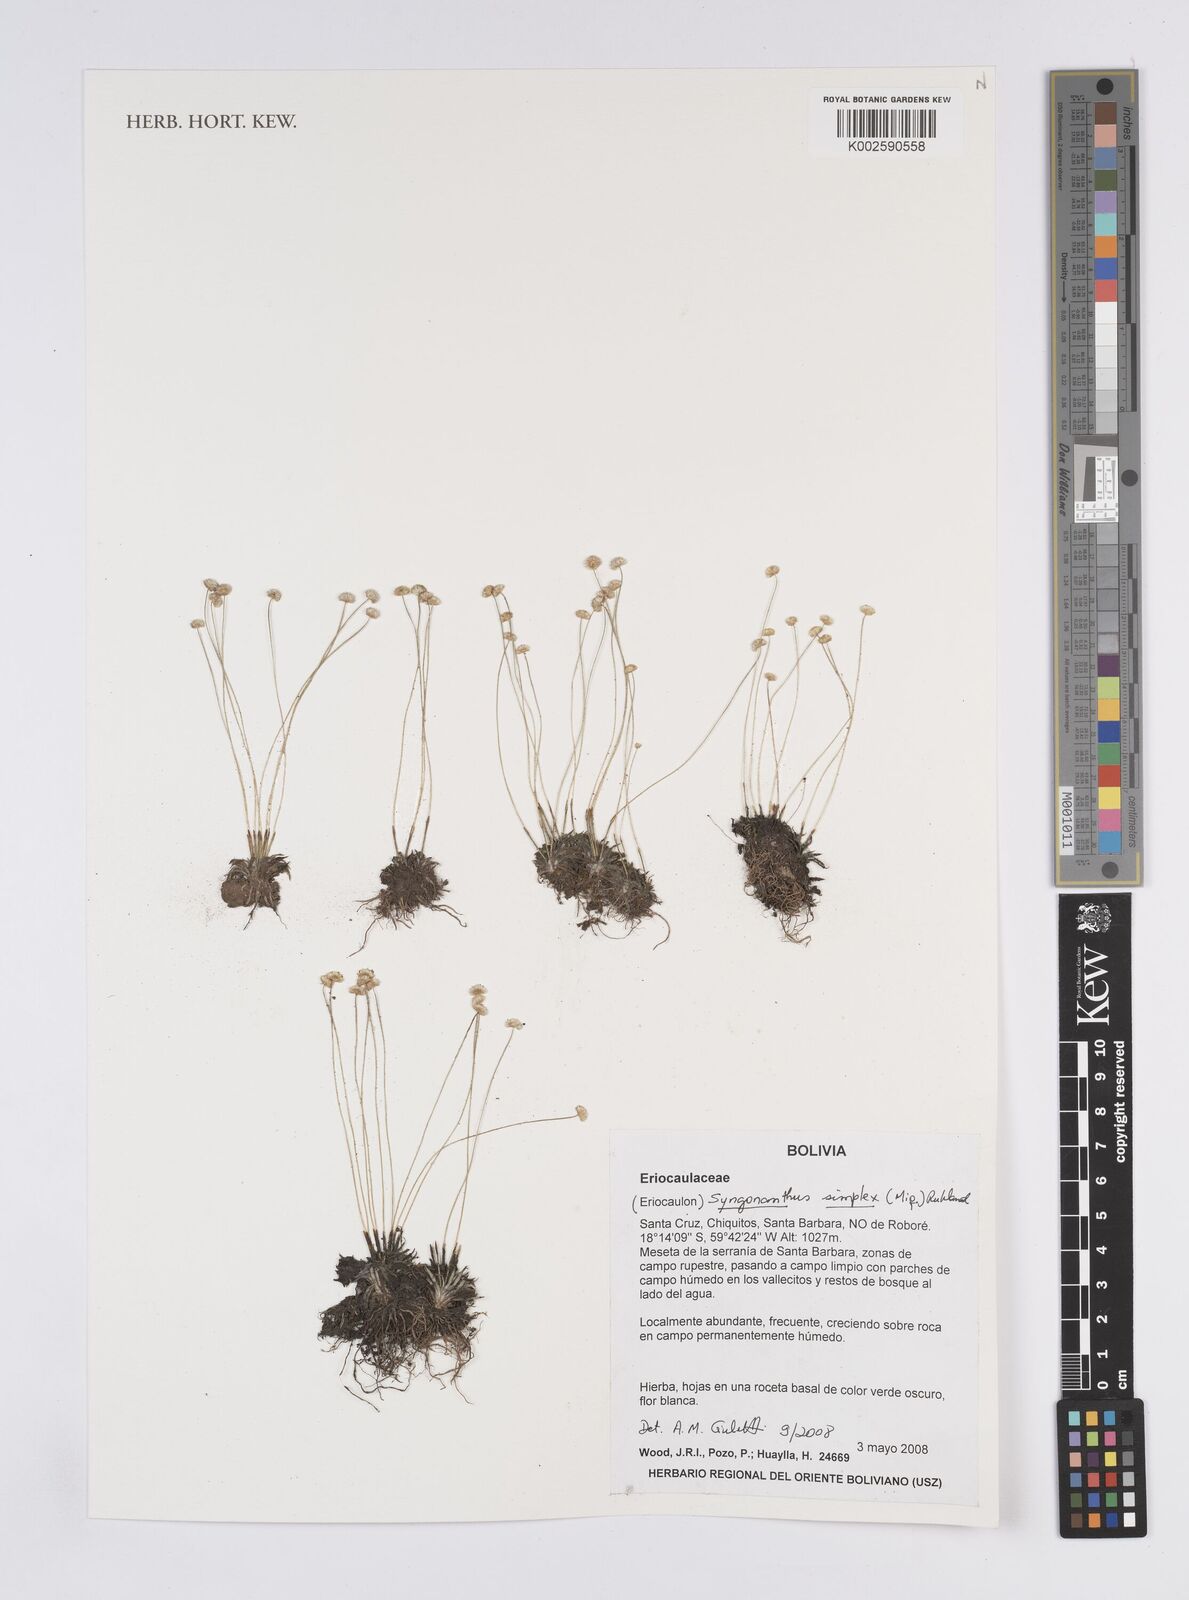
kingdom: Plantae
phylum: Tracheophyta
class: Liliopsida
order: Poales
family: Eriocaulaceae
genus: Syngonanthus
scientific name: Syngonanthus simplex
